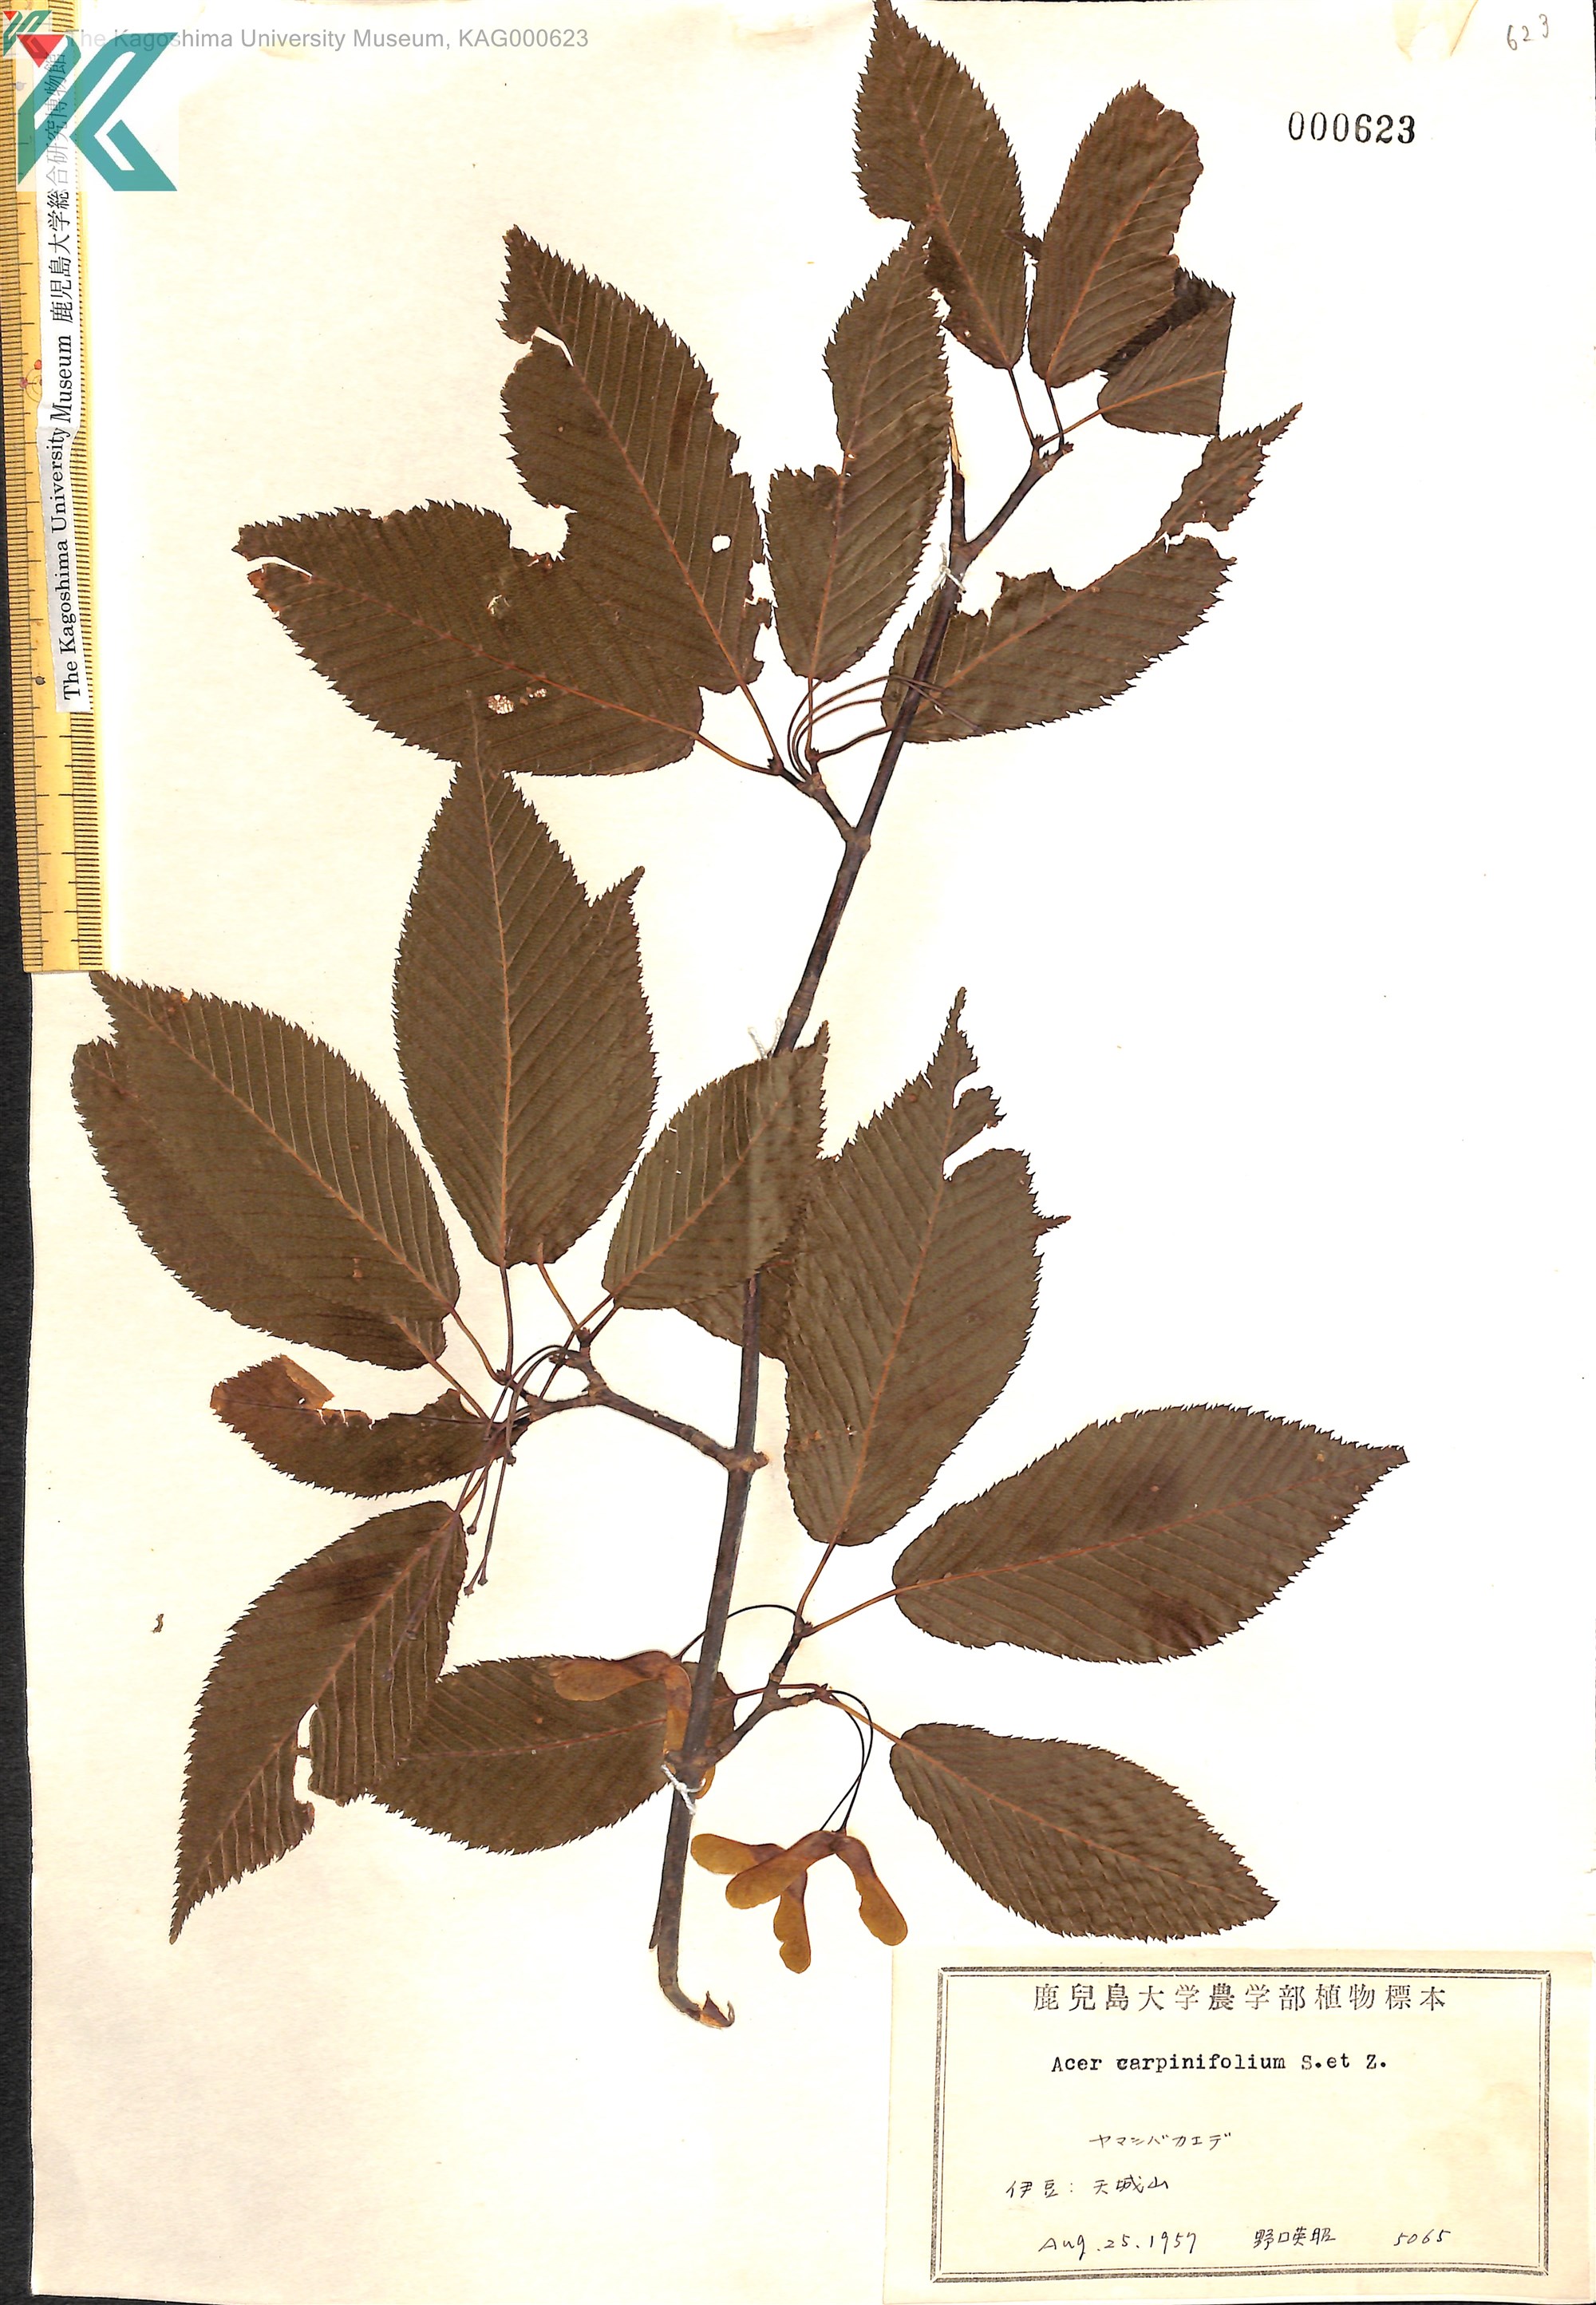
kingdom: Plantae
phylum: Tracheophyta
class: Magnoliopsida
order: Sapindales
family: Sapindaceae
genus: Acer
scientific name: Acer carpinifolium
